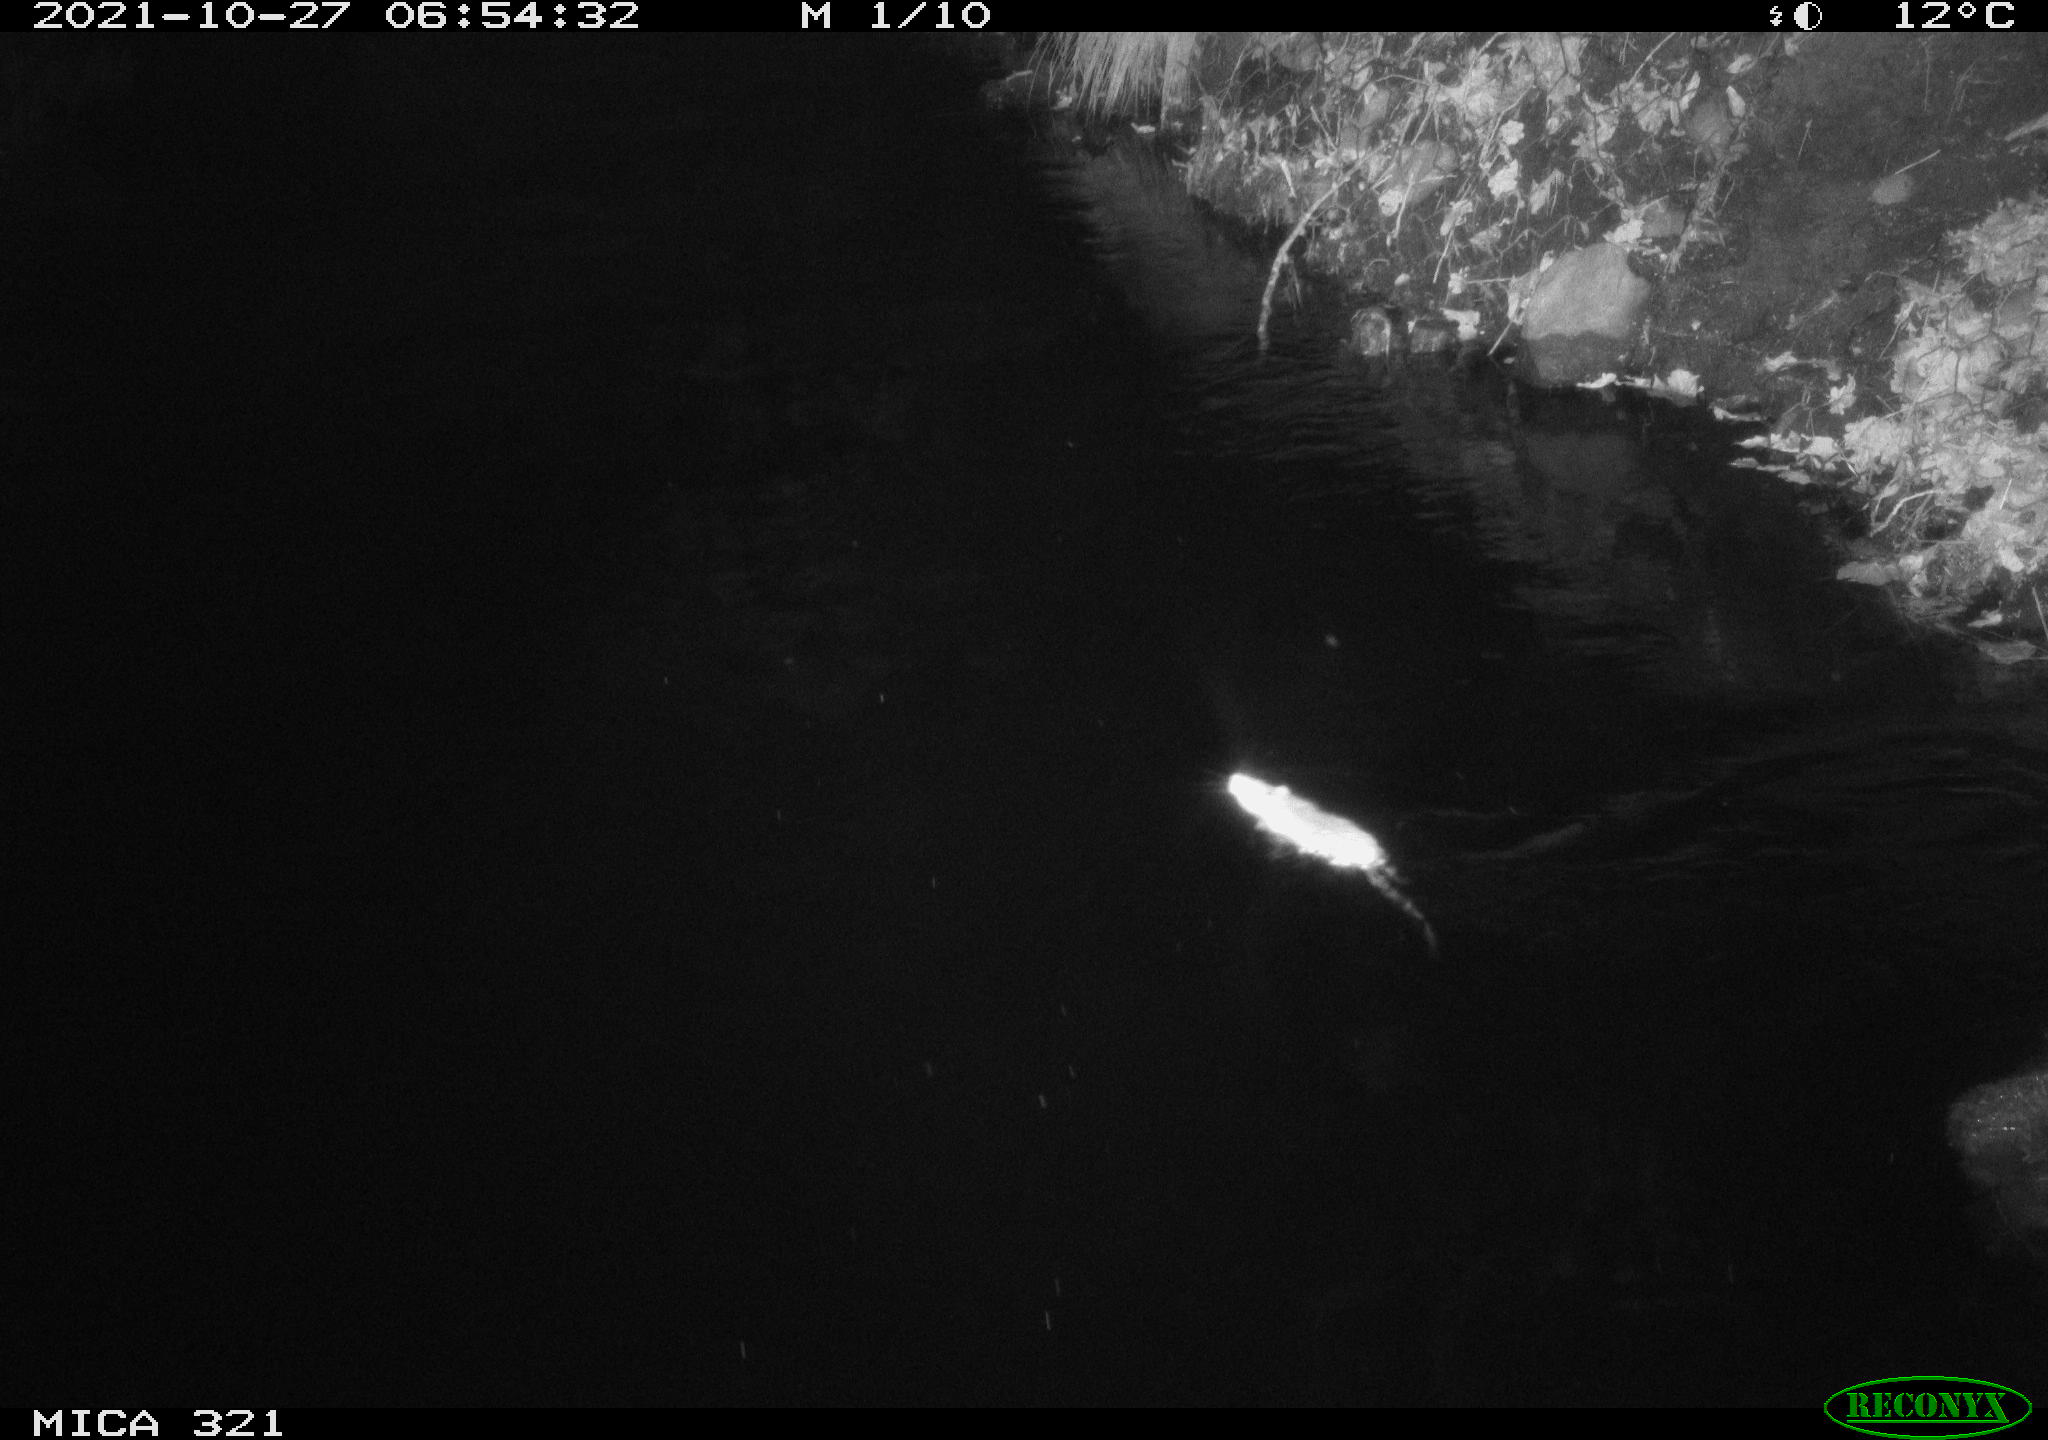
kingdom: Animalia
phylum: Chordata
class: Mammalia
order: Rodentia
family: Muridae
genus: Rattus
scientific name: Rattus norvegicus
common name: Brown rat
